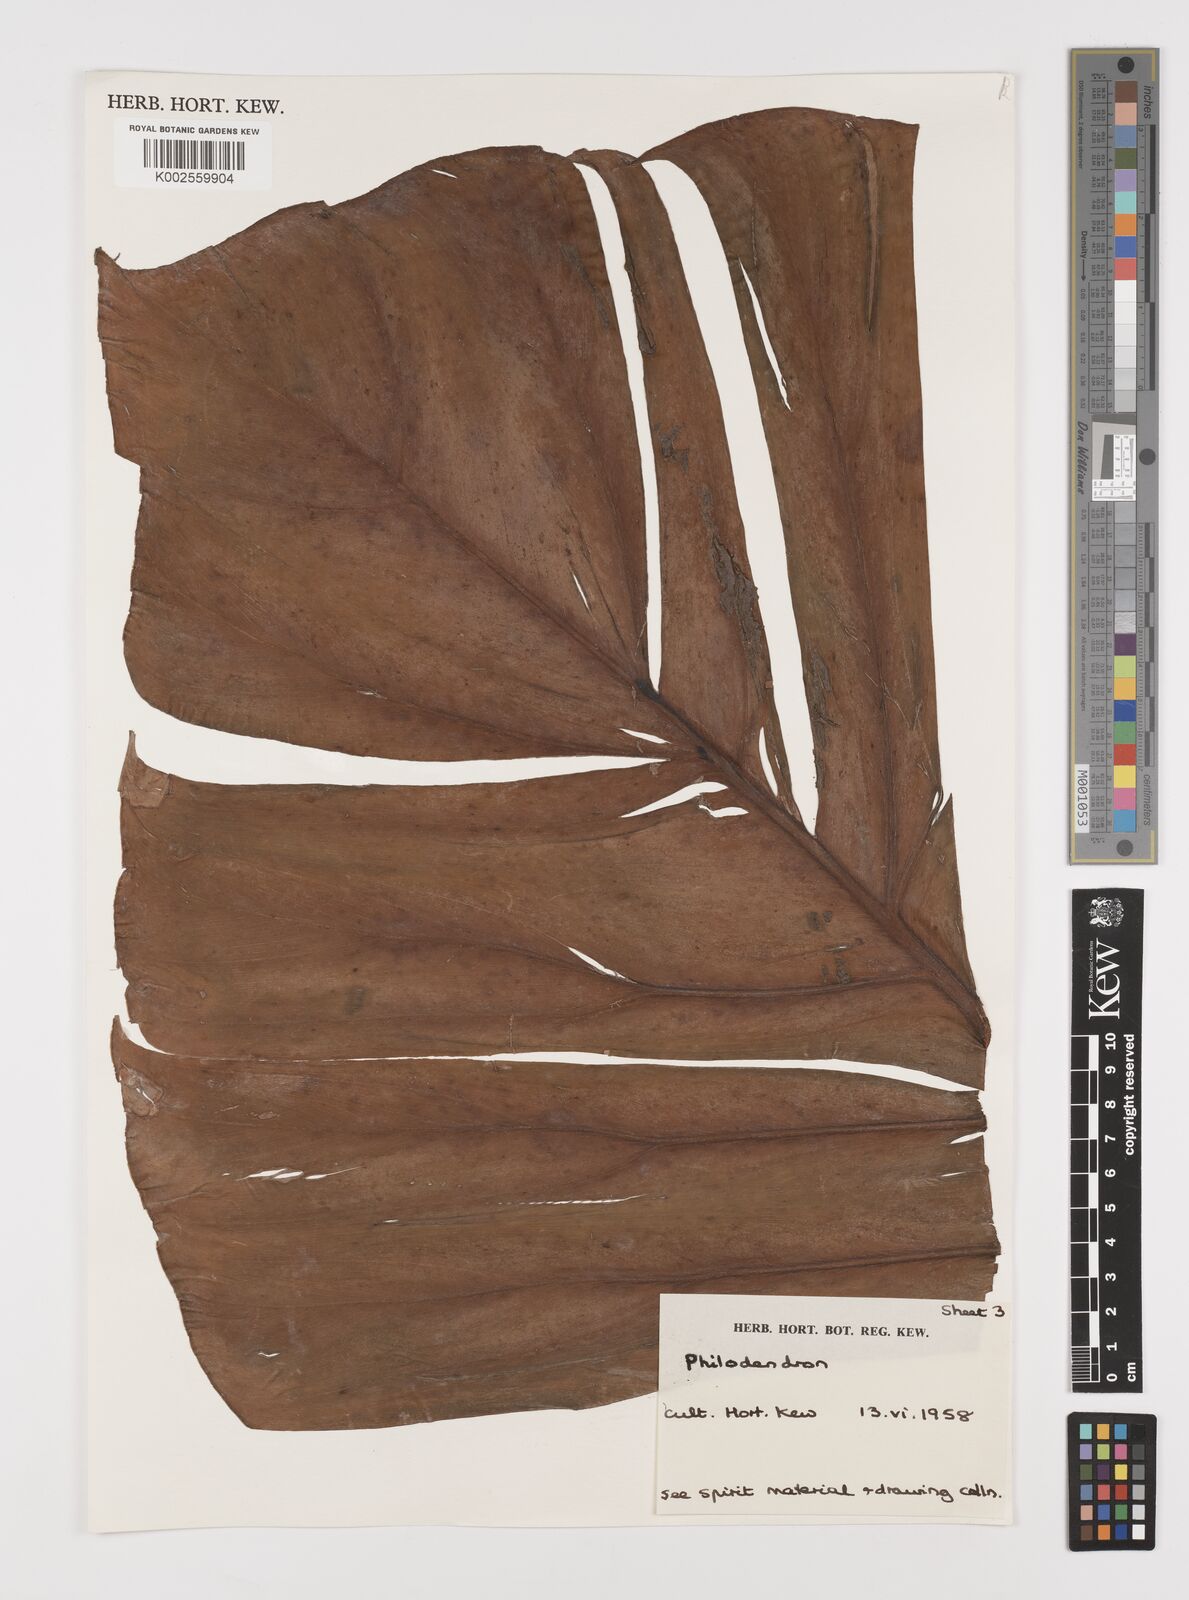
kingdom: Plantae
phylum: Tracheophyta
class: Liliopsida
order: Alismatales
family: Araceae
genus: Philodendron
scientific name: Philodendron
